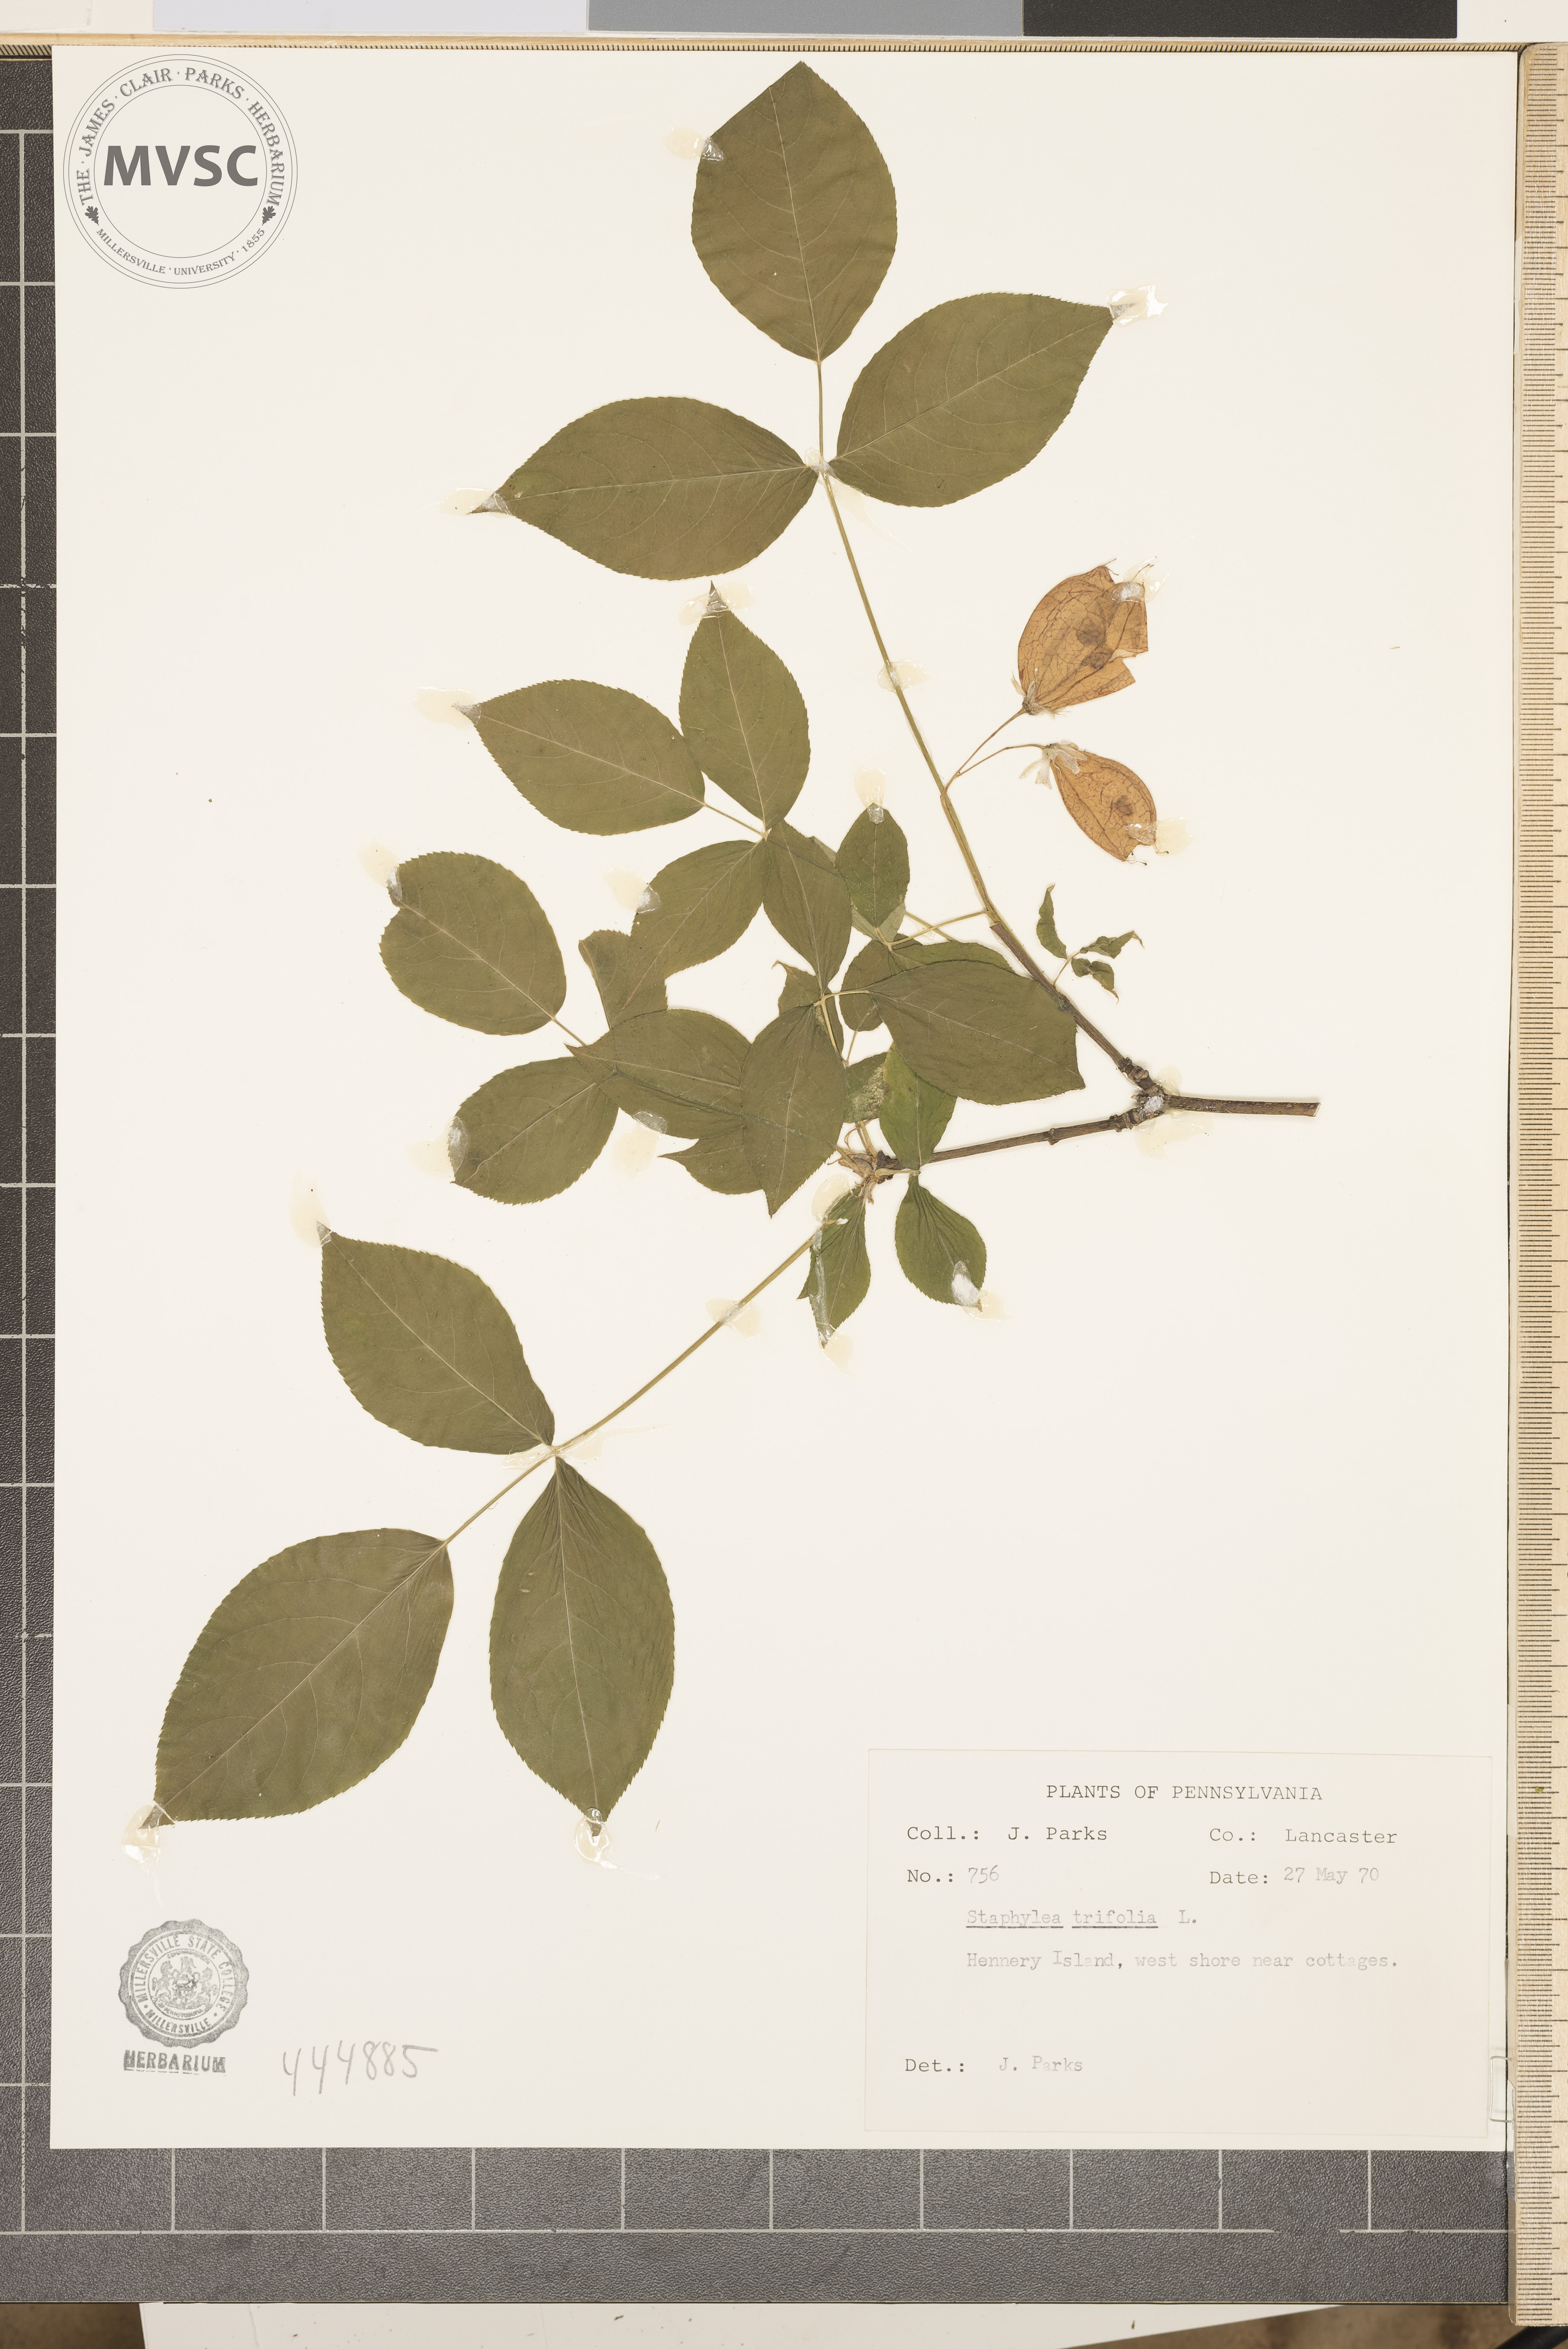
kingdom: Plantae
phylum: Tracheophyta
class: Magnoliopsida
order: Crossosomatales
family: Staphyleaceae
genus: Staphylea
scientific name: Staphylea trifolia
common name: American bladdernut
